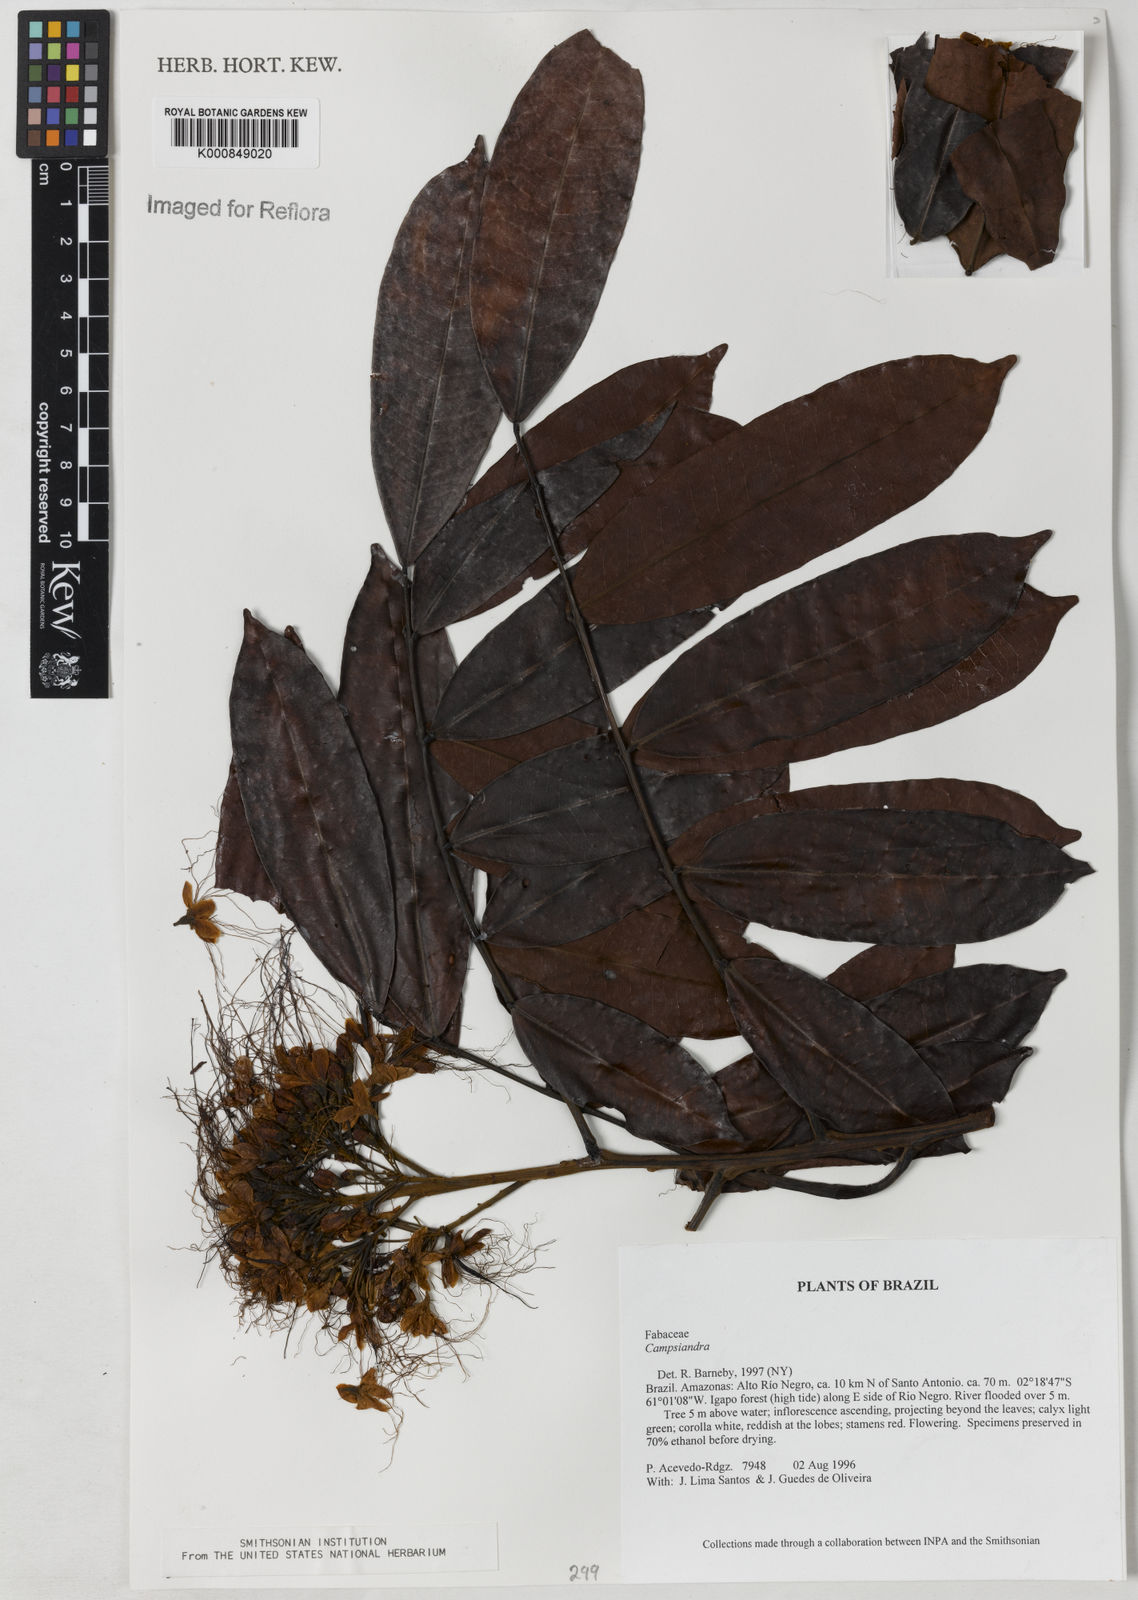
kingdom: Plantae
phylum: Tracheophyta
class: Magnoliopsida
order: Fabales
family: Fabaceae
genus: Campsiandra
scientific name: Campsiandra
